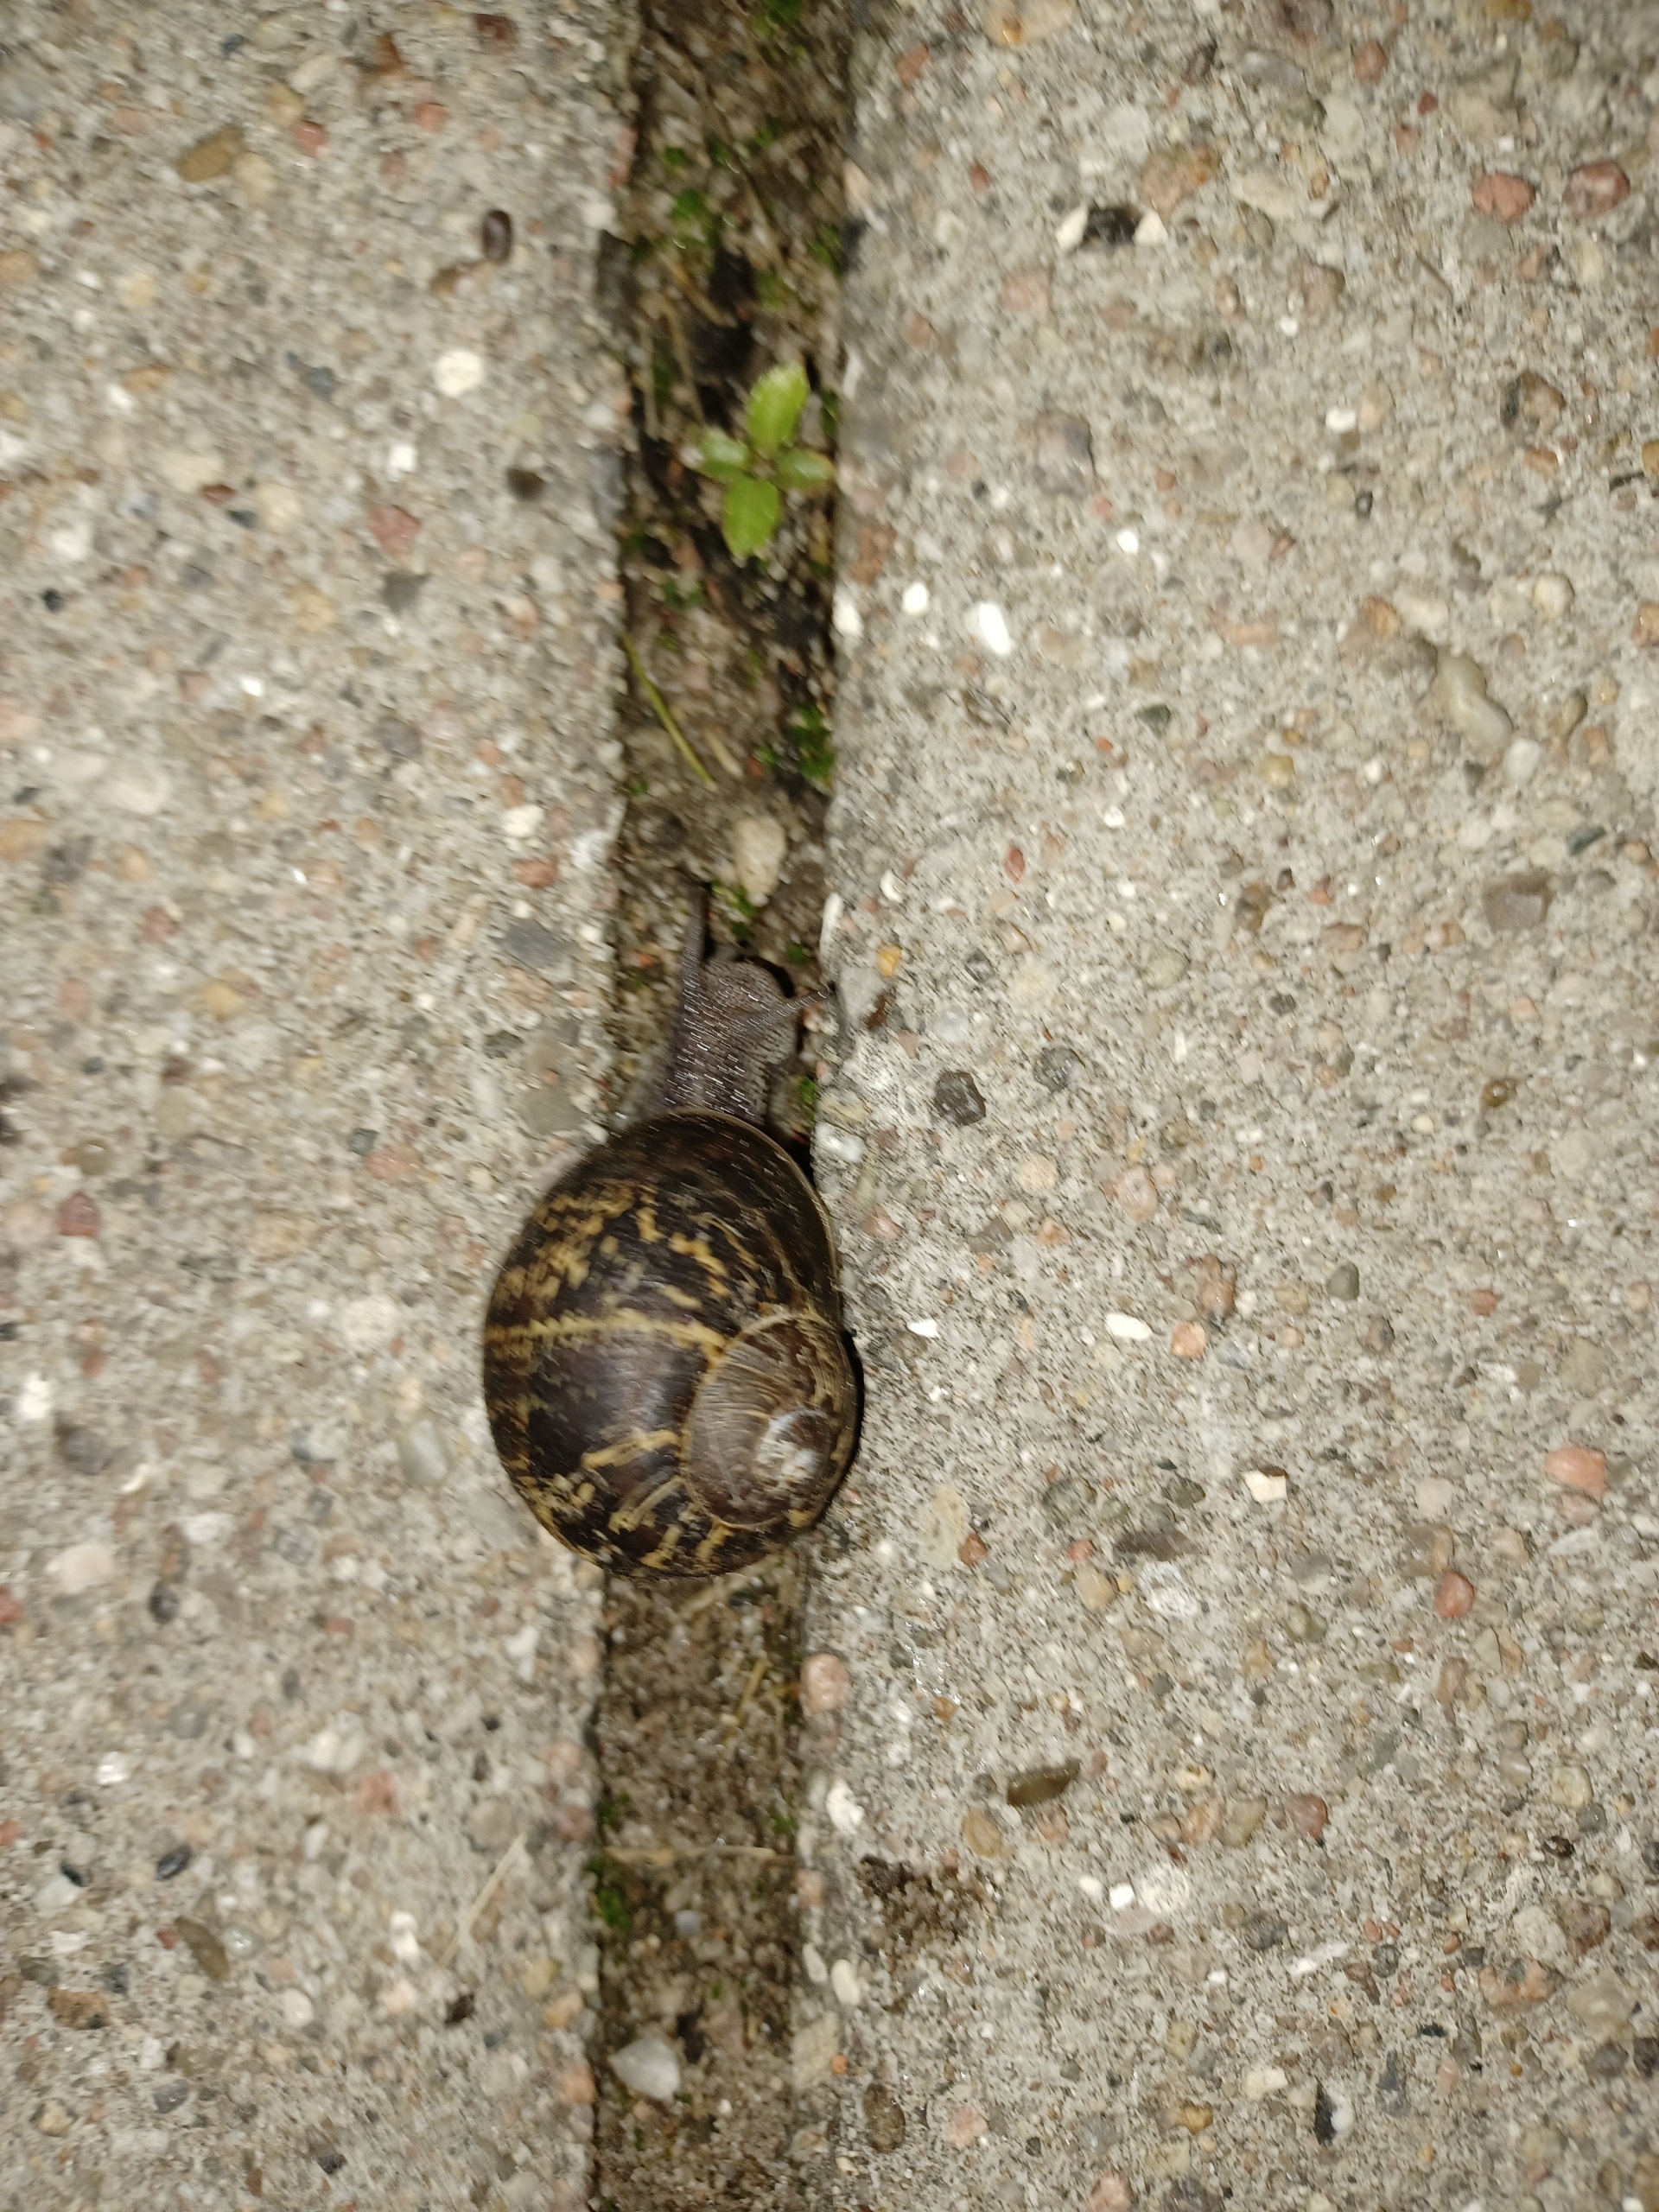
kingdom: Animalia
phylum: Mollusca
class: Gastropoda
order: Stylommatophora
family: Helicidae
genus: Cornu
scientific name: Cornu aspersum
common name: Plettet voldsnegl
